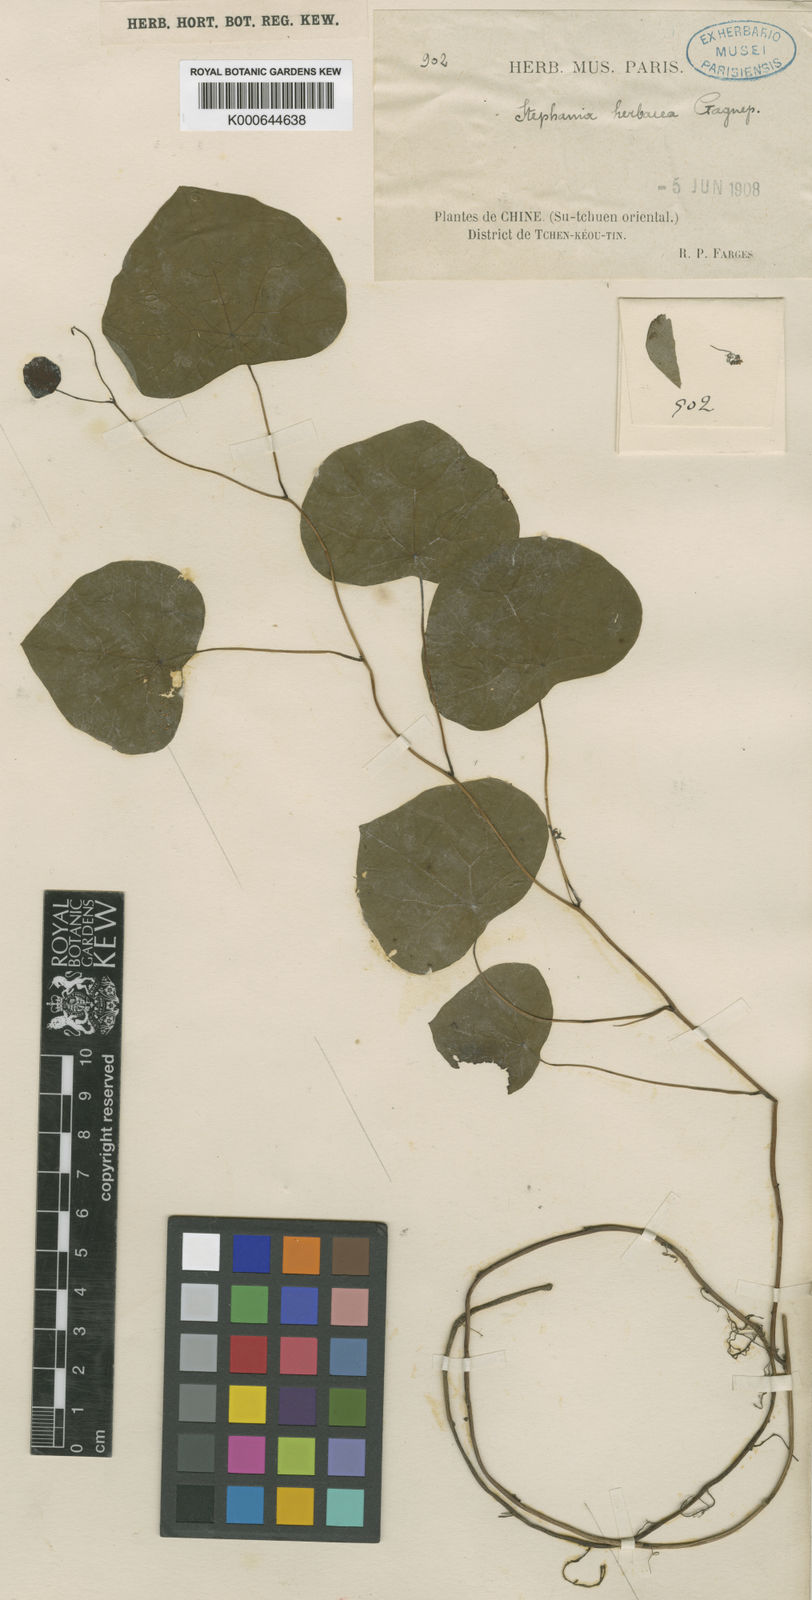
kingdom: Plantae
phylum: Tracheophyta
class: Magnoliopsida
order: Ranunculales
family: Menispermaceae
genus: Stephania
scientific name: Stephania herbacea
